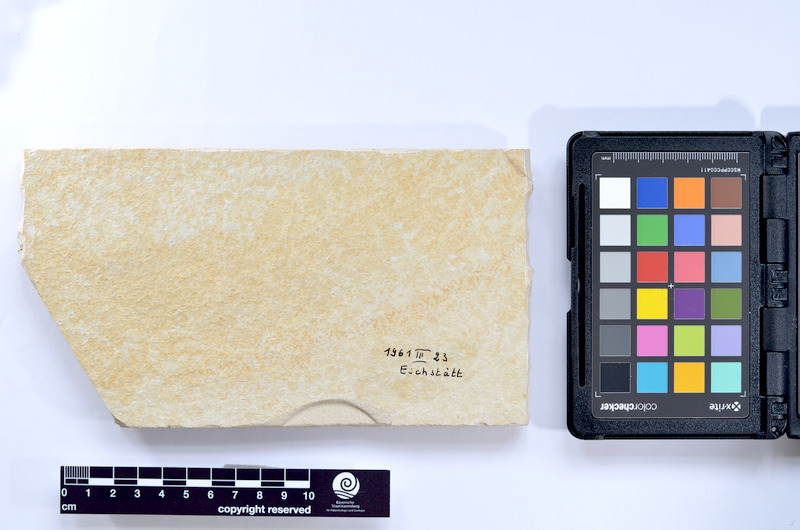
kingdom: Animalia
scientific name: Animalia
